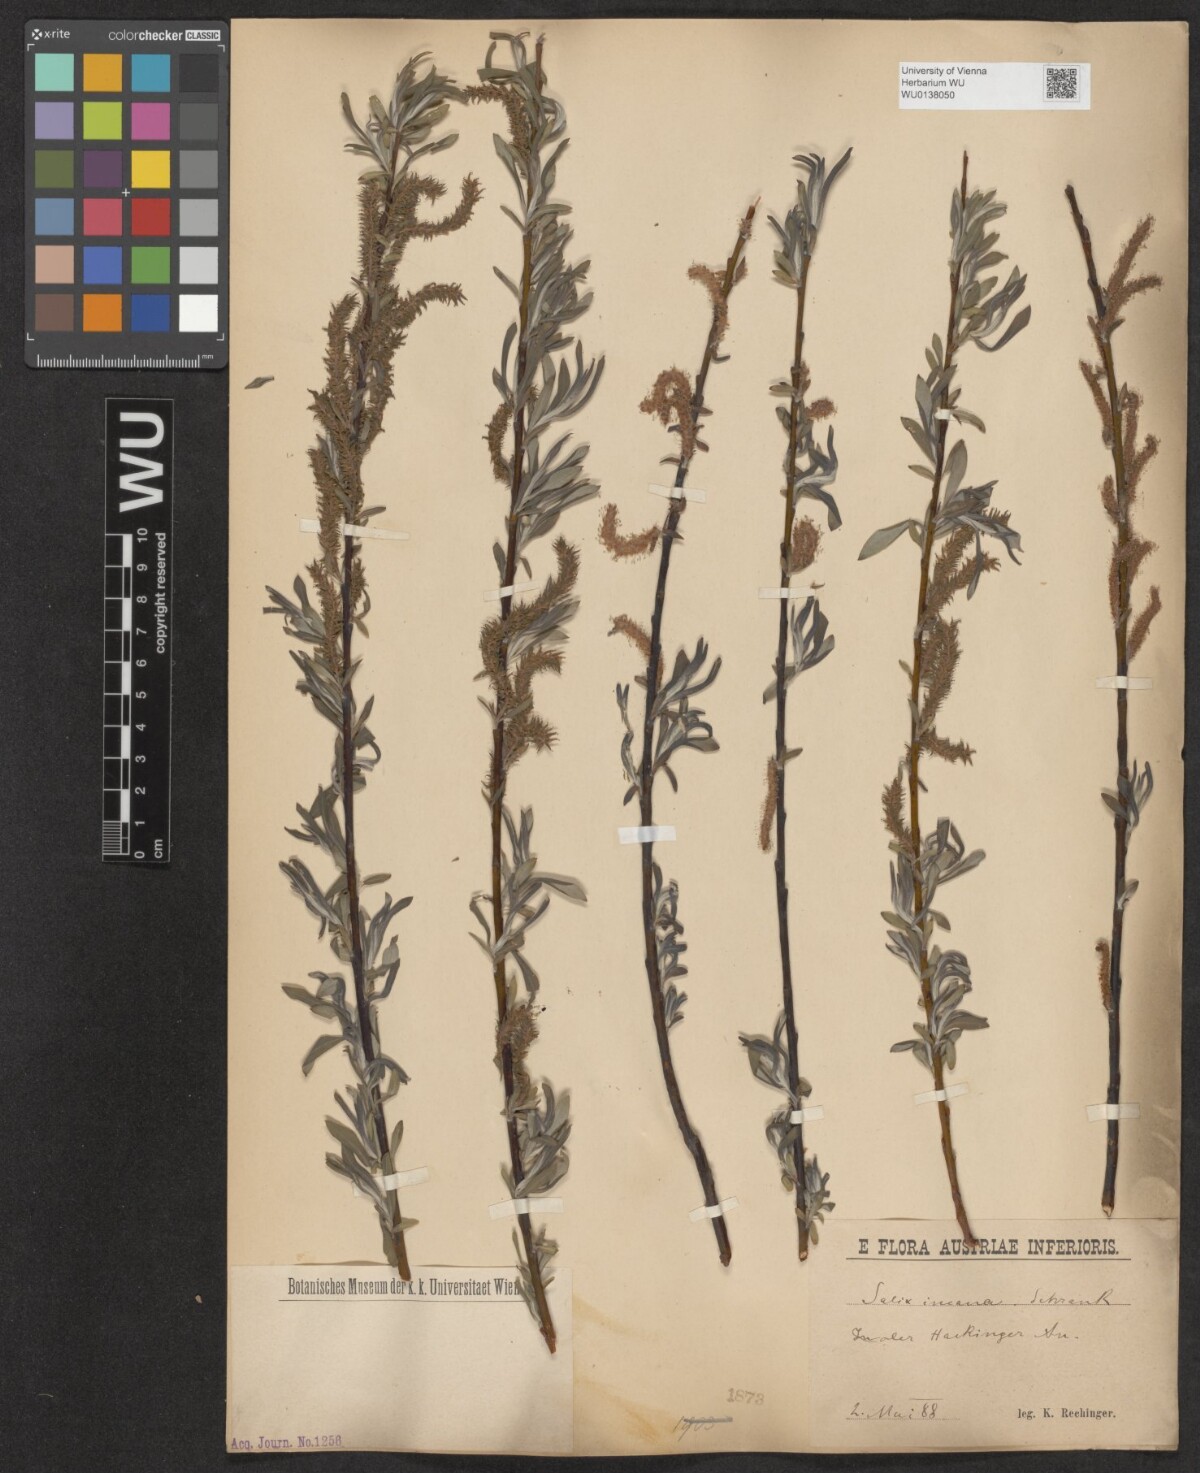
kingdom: Plantae
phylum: Tracheophyta
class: Magnoliopsida
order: Malpighiales
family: Salicaceae
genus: Salix
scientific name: Salix eleagnos
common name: Elaeagnus willow
